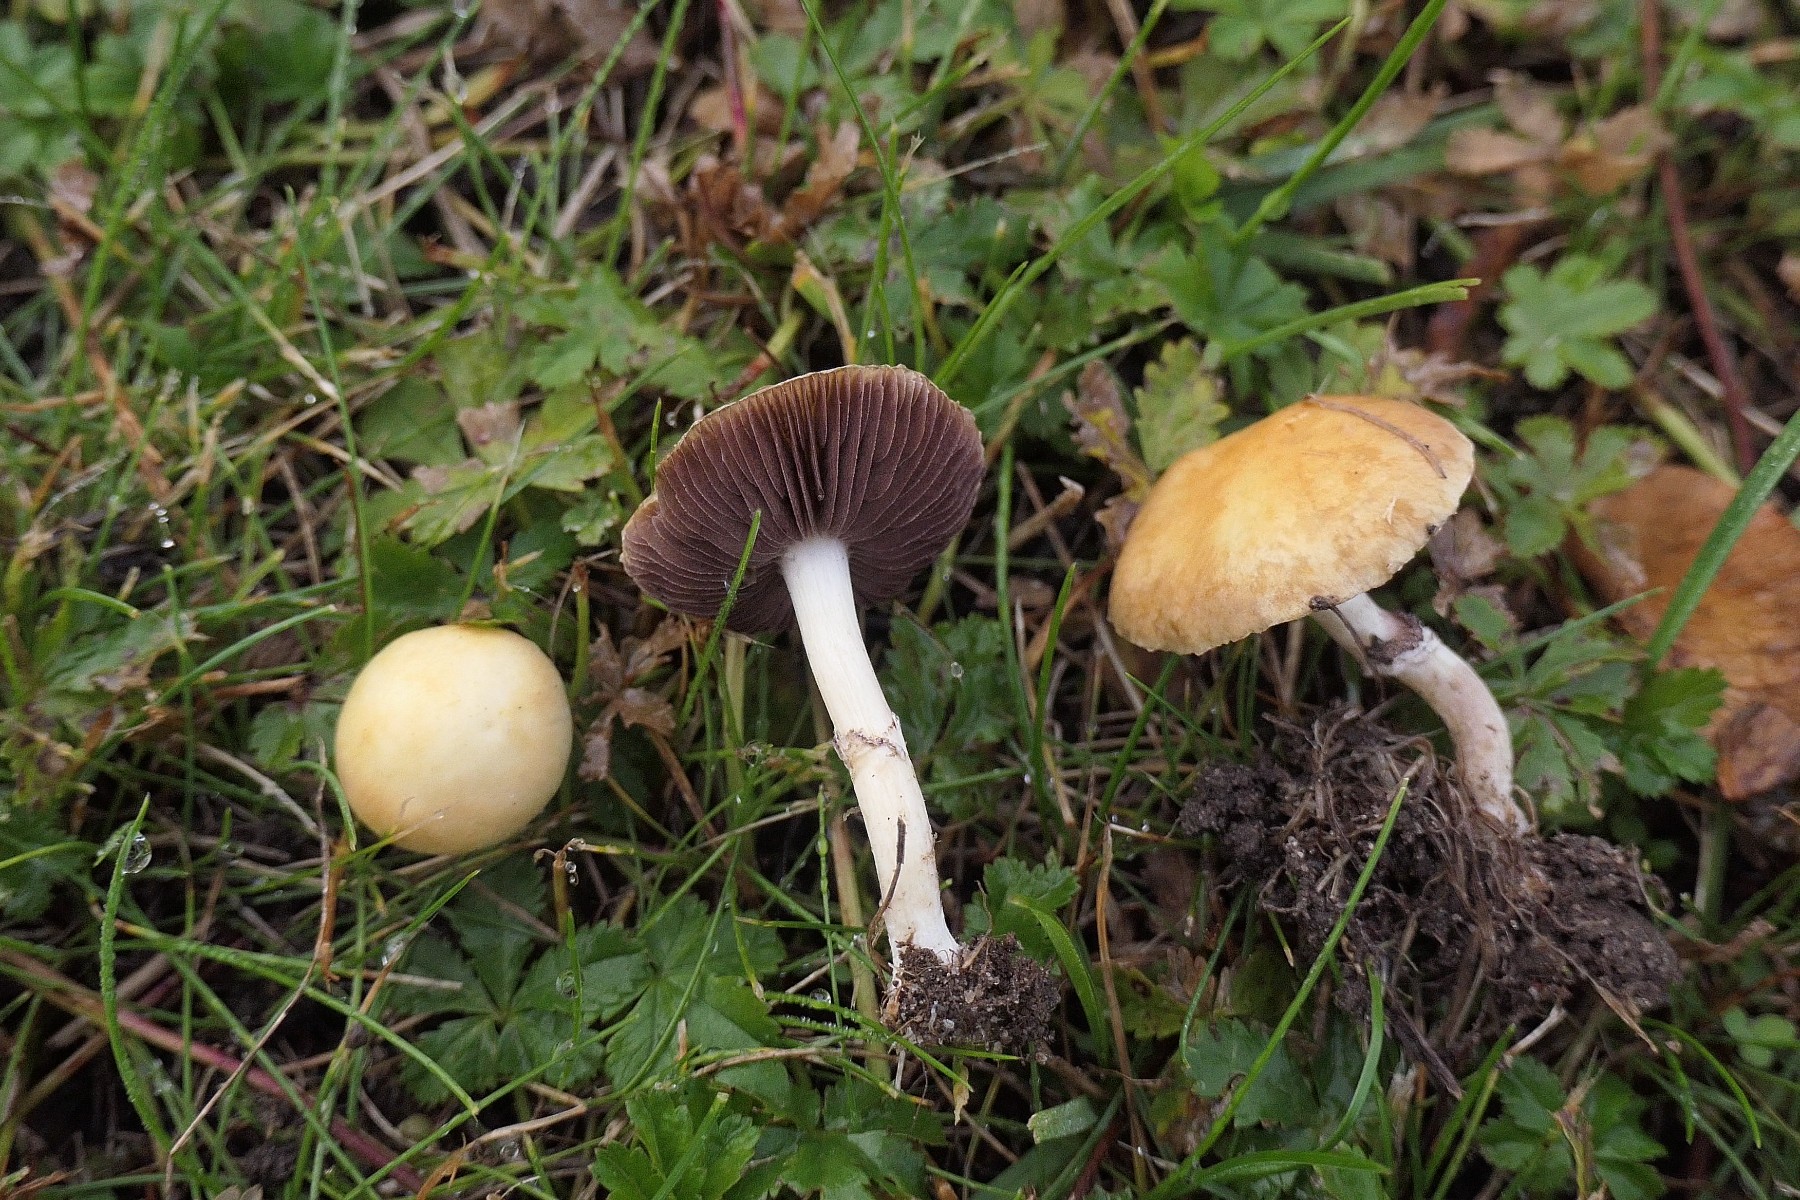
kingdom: Fungi
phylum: Basidiomycota
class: Agaricomycetes
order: Agaricales
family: Hymenogastraceae
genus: Psilocybe
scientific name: Psilocybe coronilla
